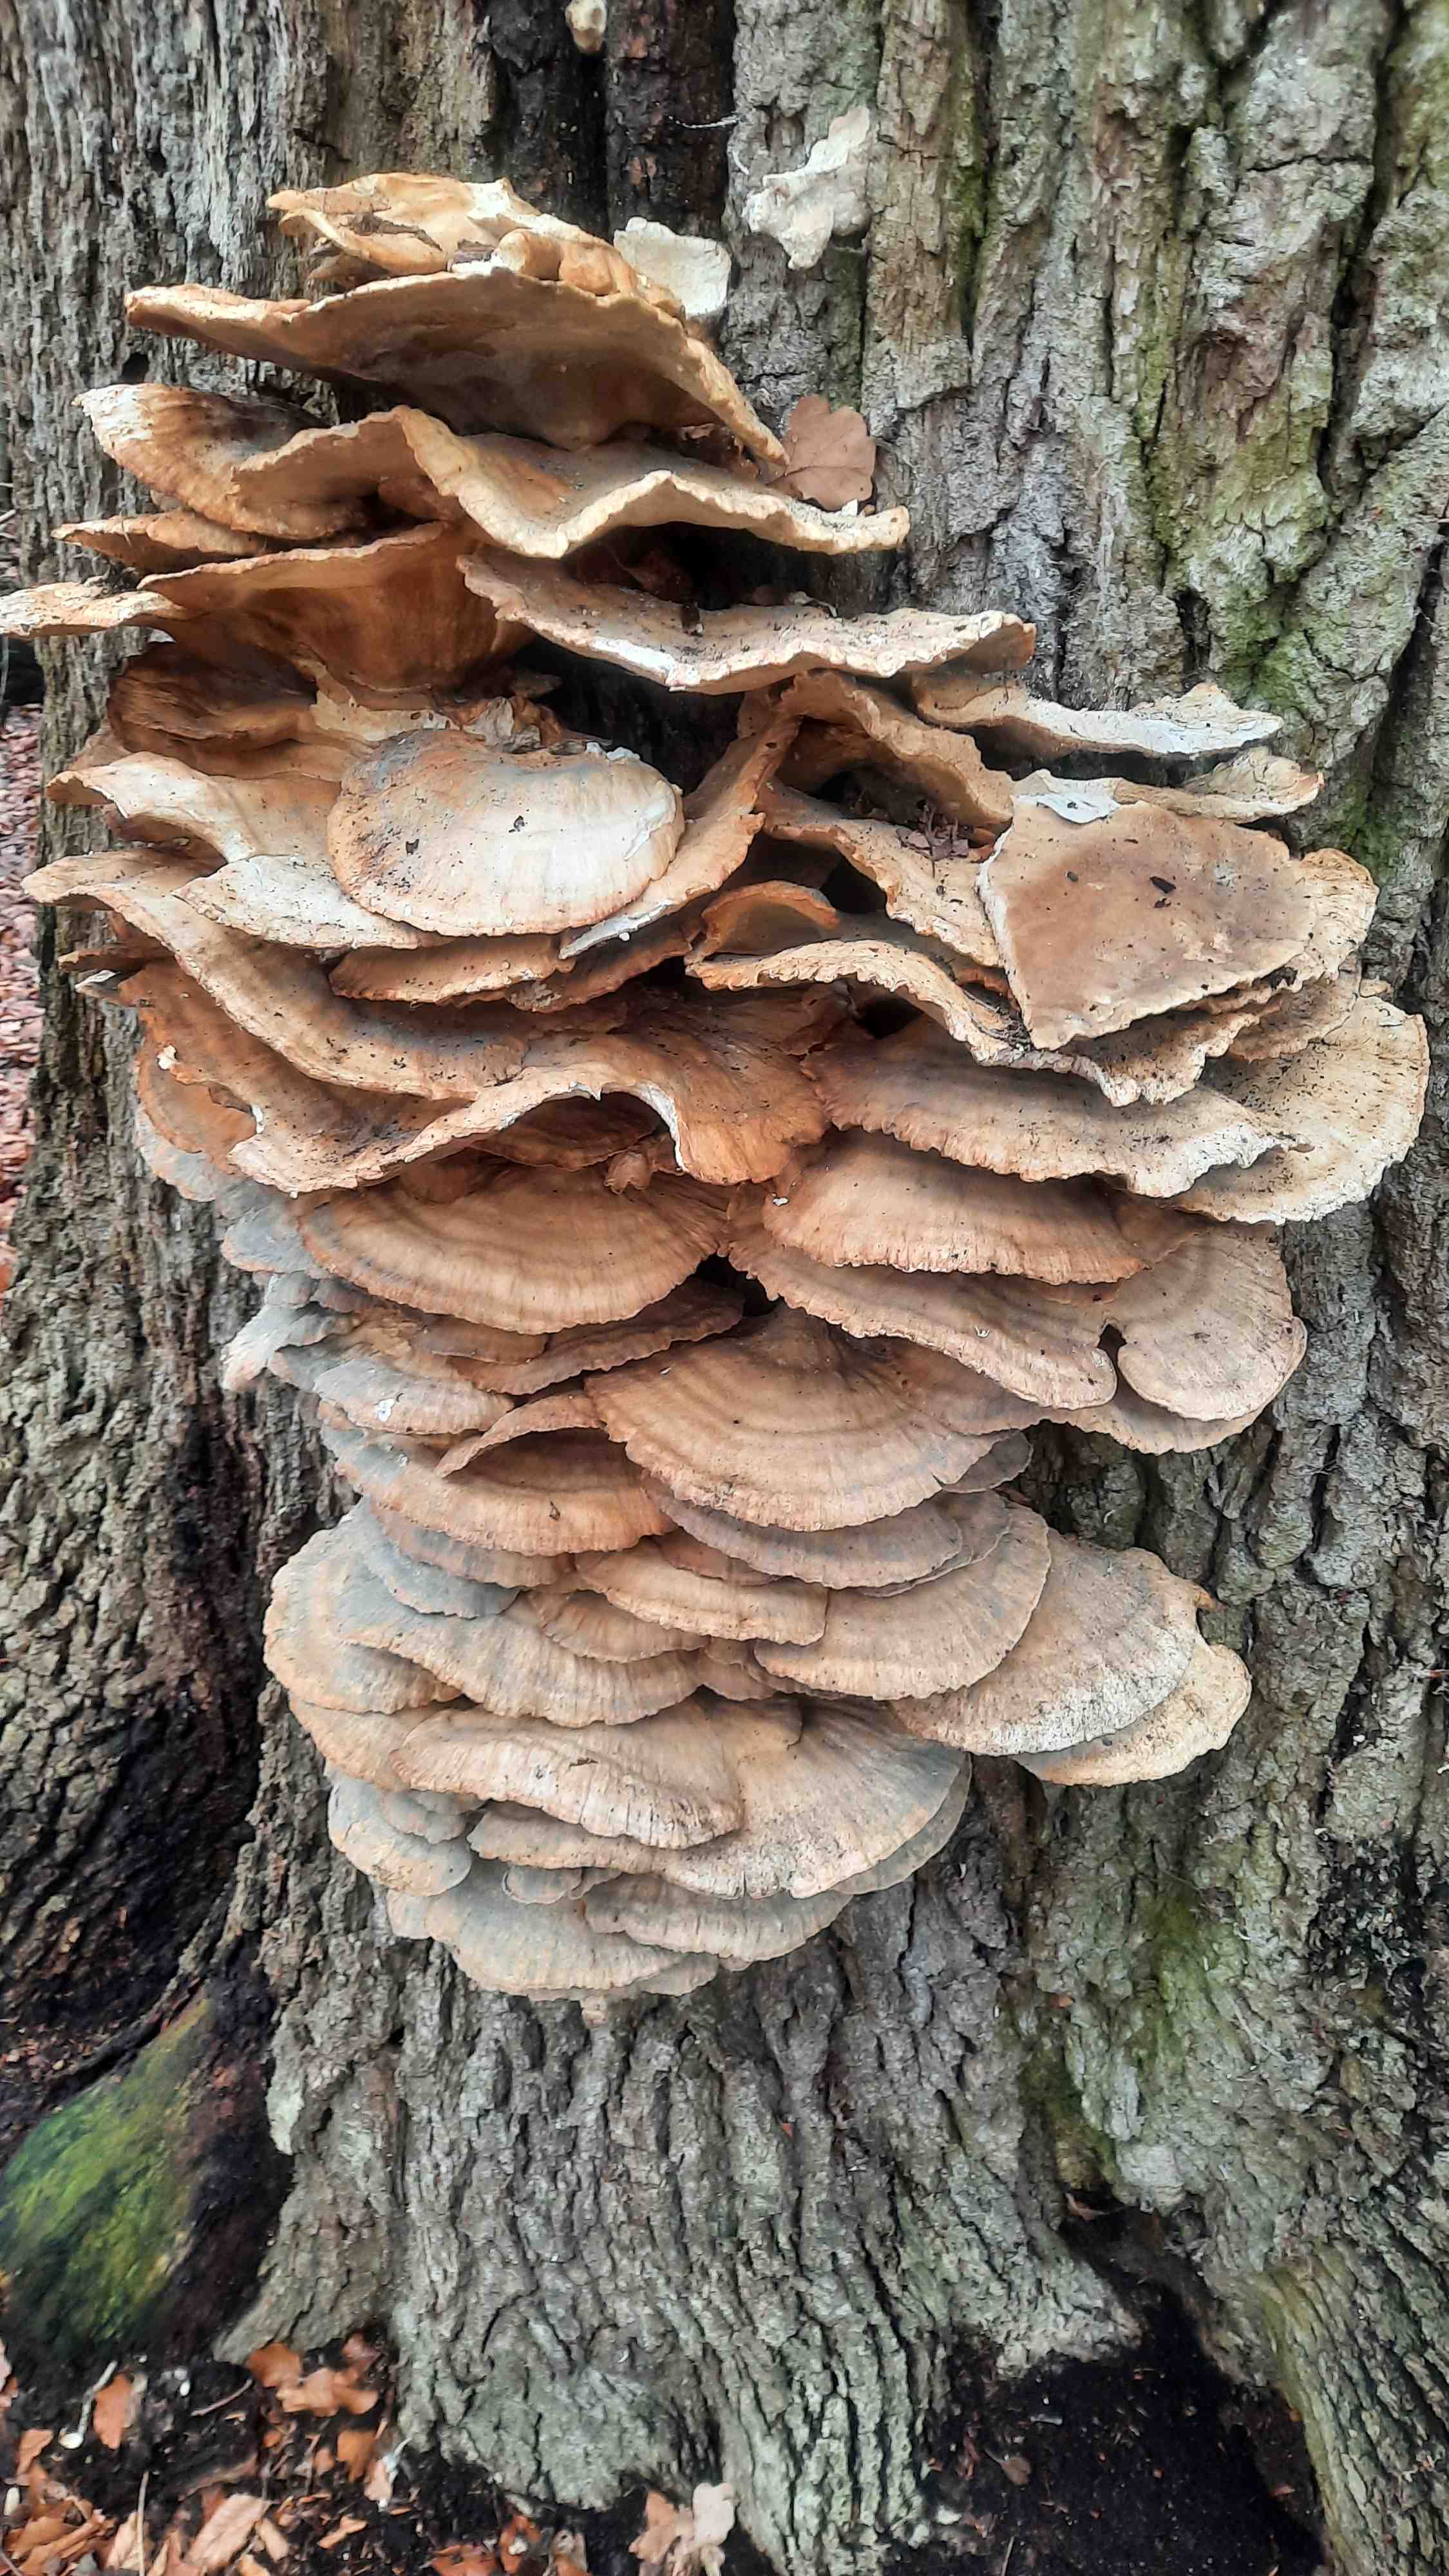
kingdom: Fungi
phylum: Basidiomycota
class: Agaricomycetes
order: Polyporales
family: Laetiporaceae
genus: Laetiporus
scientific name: Laetiporus sulphureus
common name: svovlporesvamp
